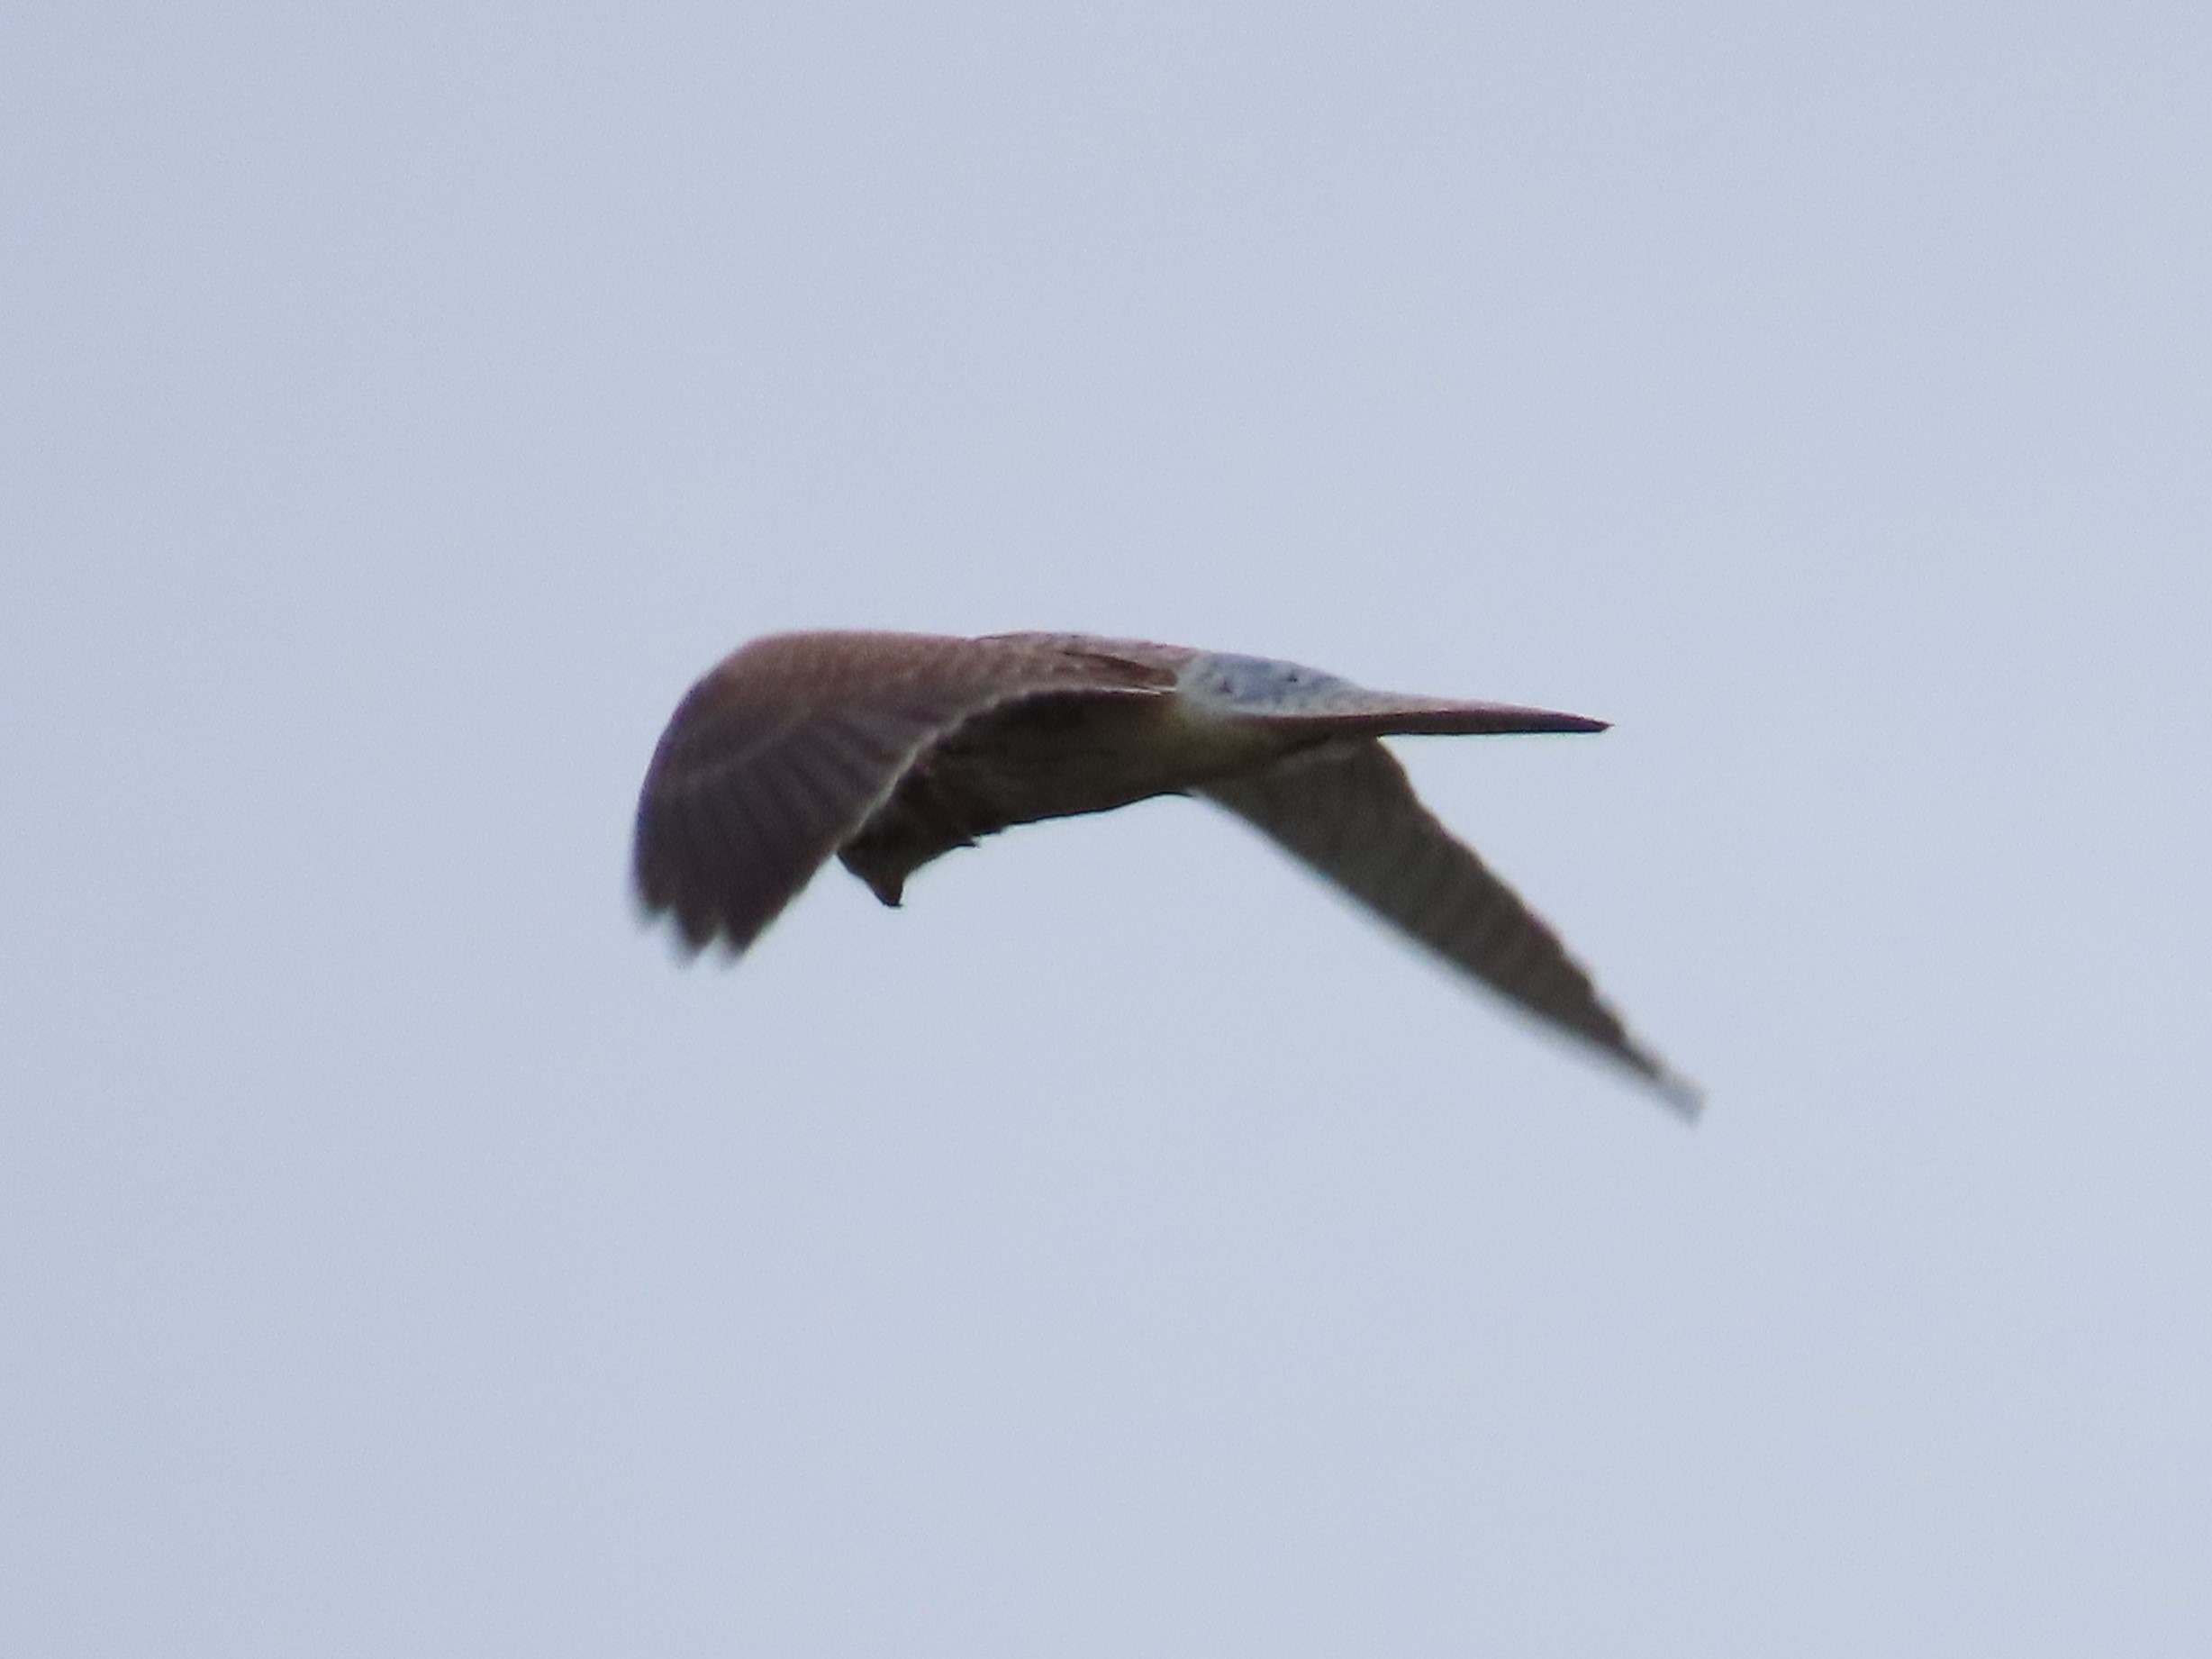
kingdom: Animalia
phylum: Chordata
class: Aves
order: Falconiformes
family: Falconidae
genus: Falco
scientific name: Falco tinnunculus
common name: Tårnfalk
